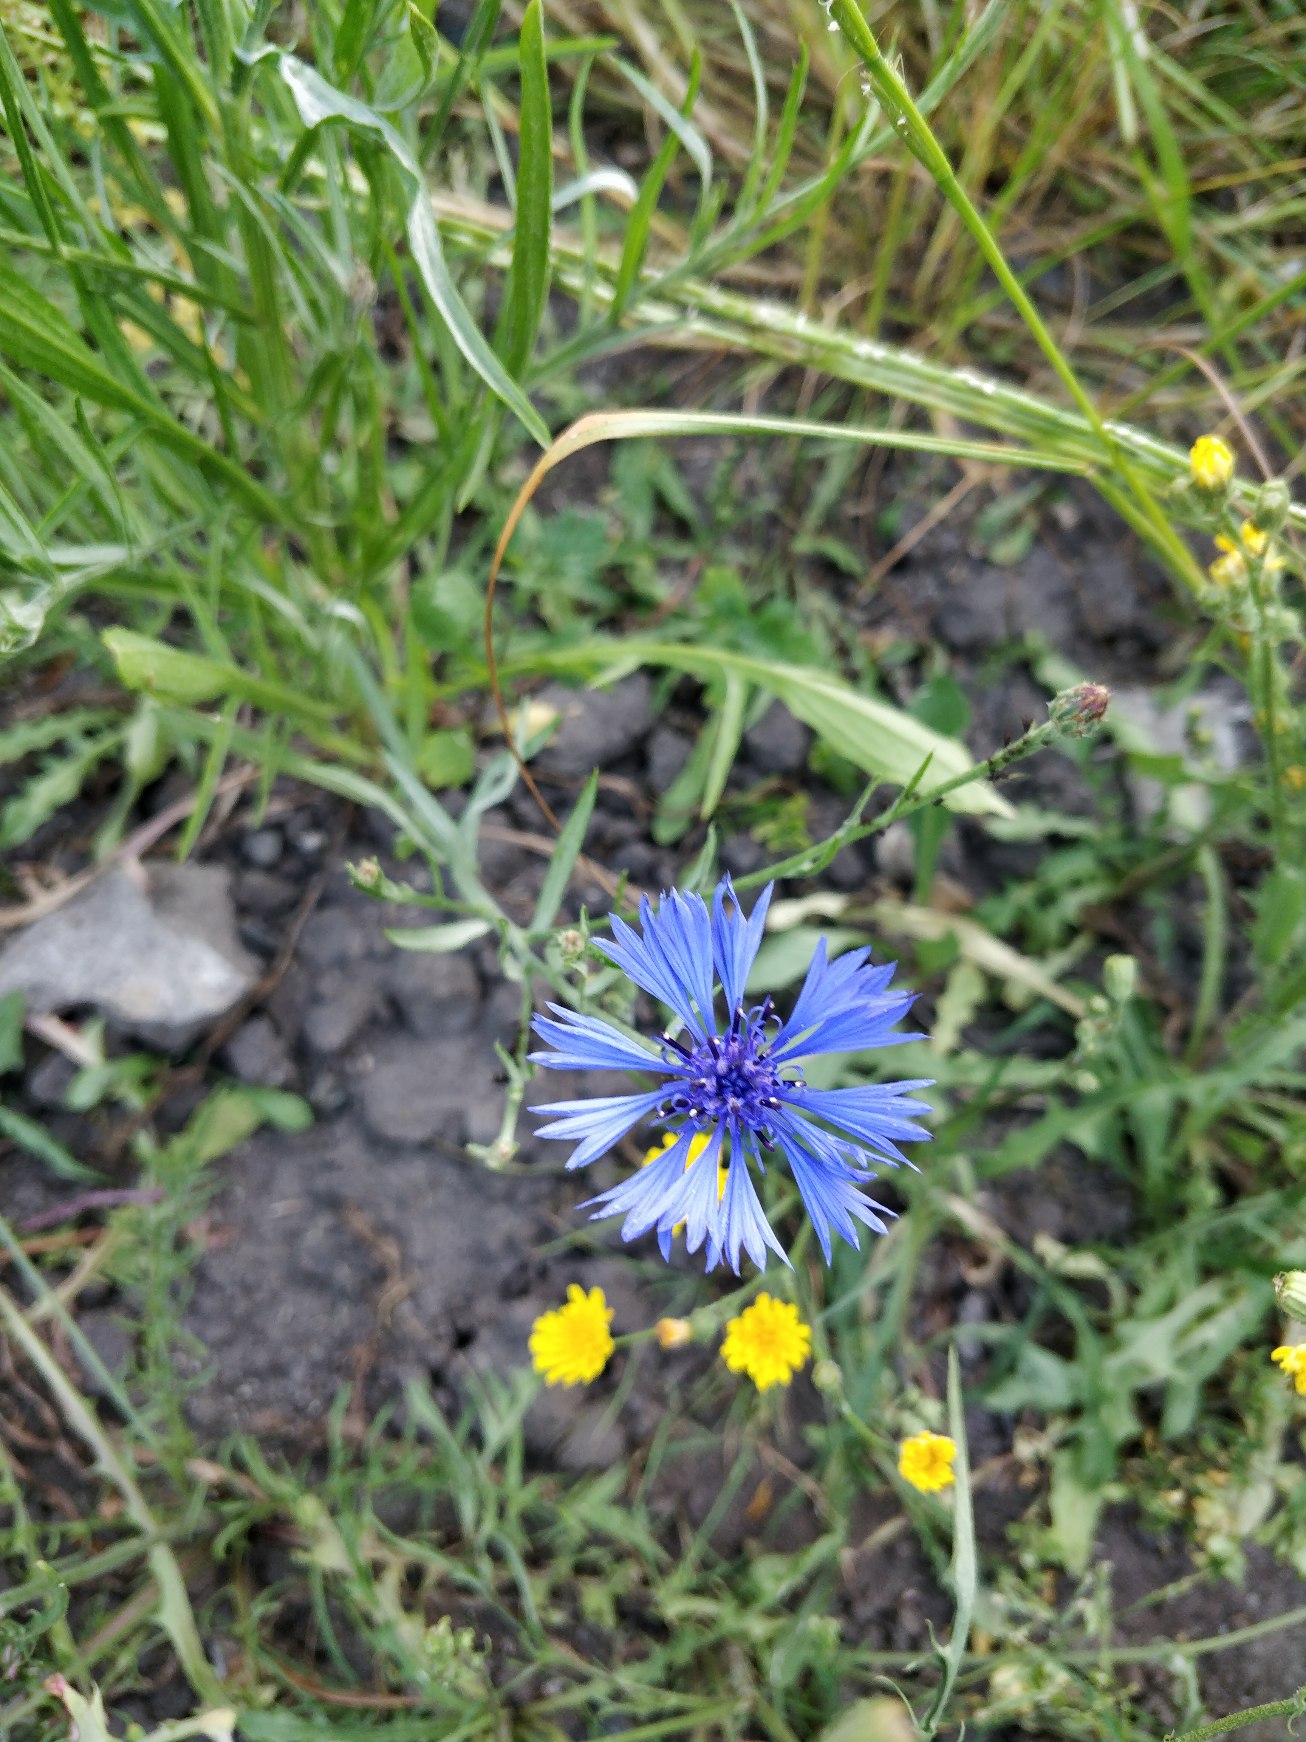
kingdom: Plantae
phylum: Tracheophyta
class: Magnoliopsida
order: Asterales
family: Asteraceae
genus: Centaurea
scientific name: Centaurea cyanus
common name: Kornblomst
